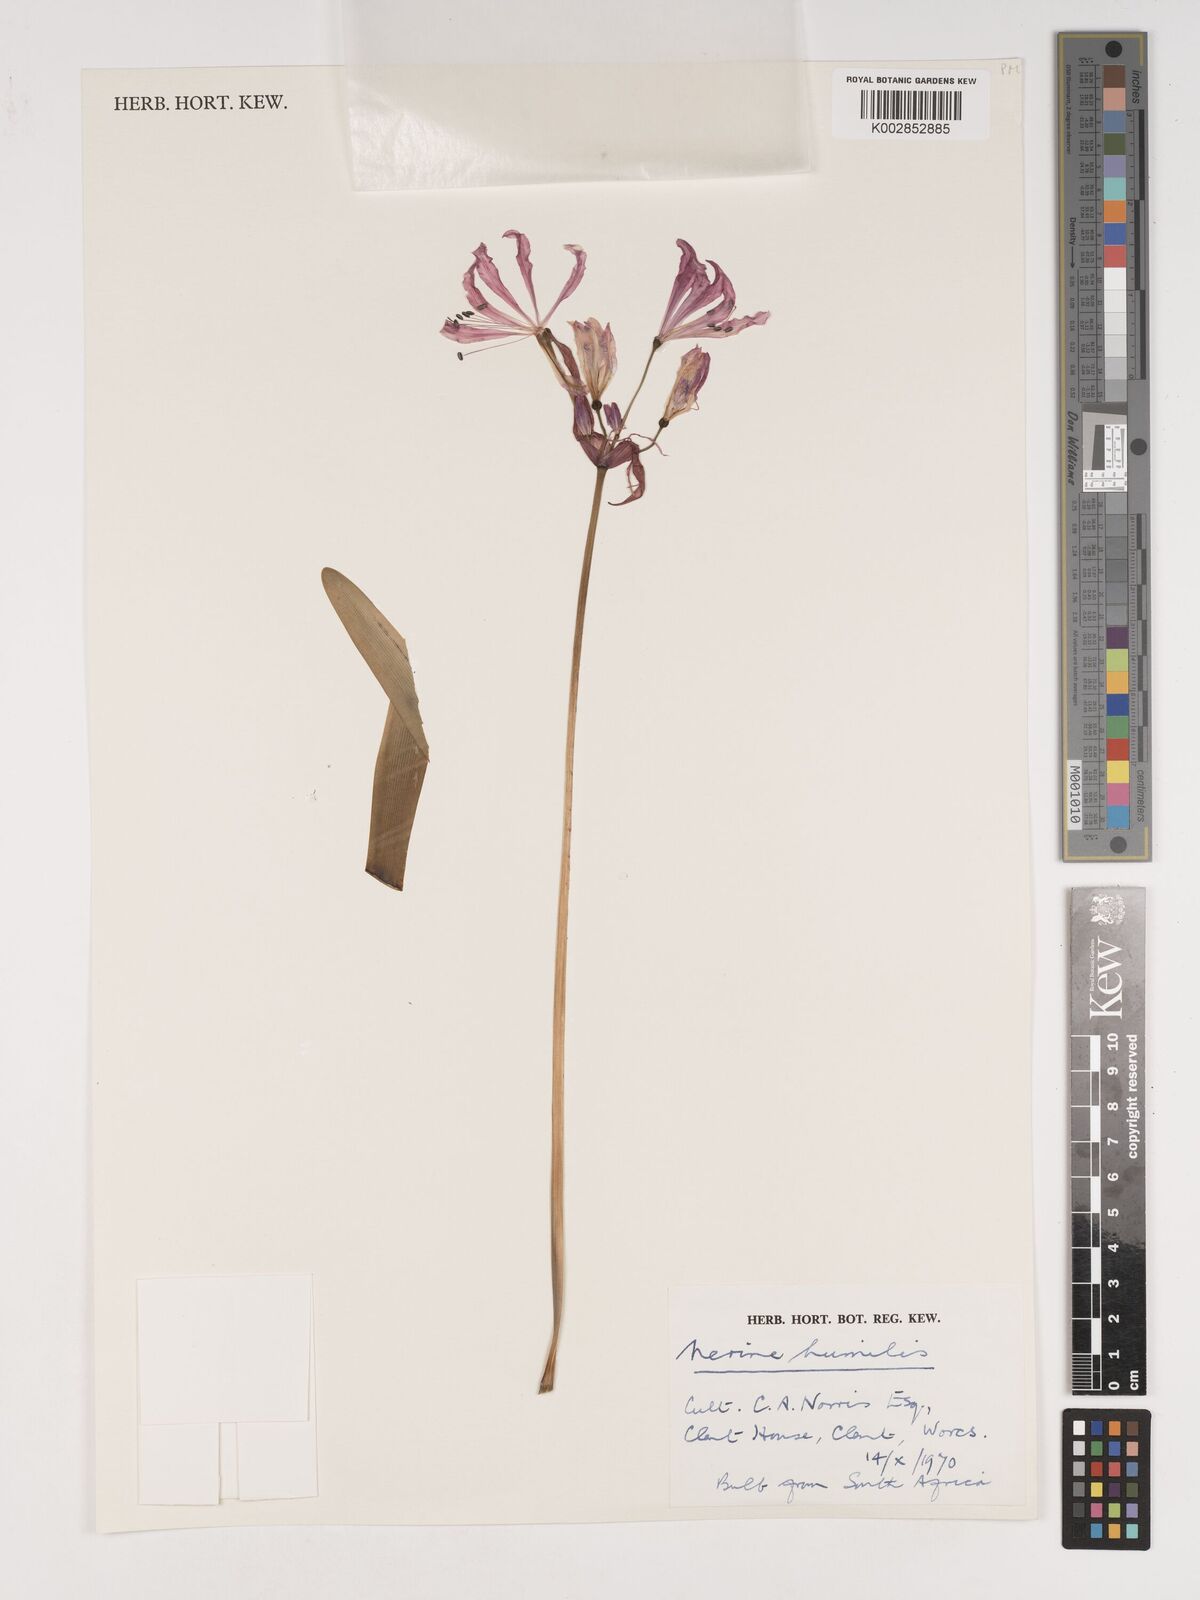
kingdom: Plantae
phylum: Tracheophyta
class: Liliopsida
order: Asparagales
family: Amaryllidaceae
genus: Nerine
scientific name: Nerine humilis
